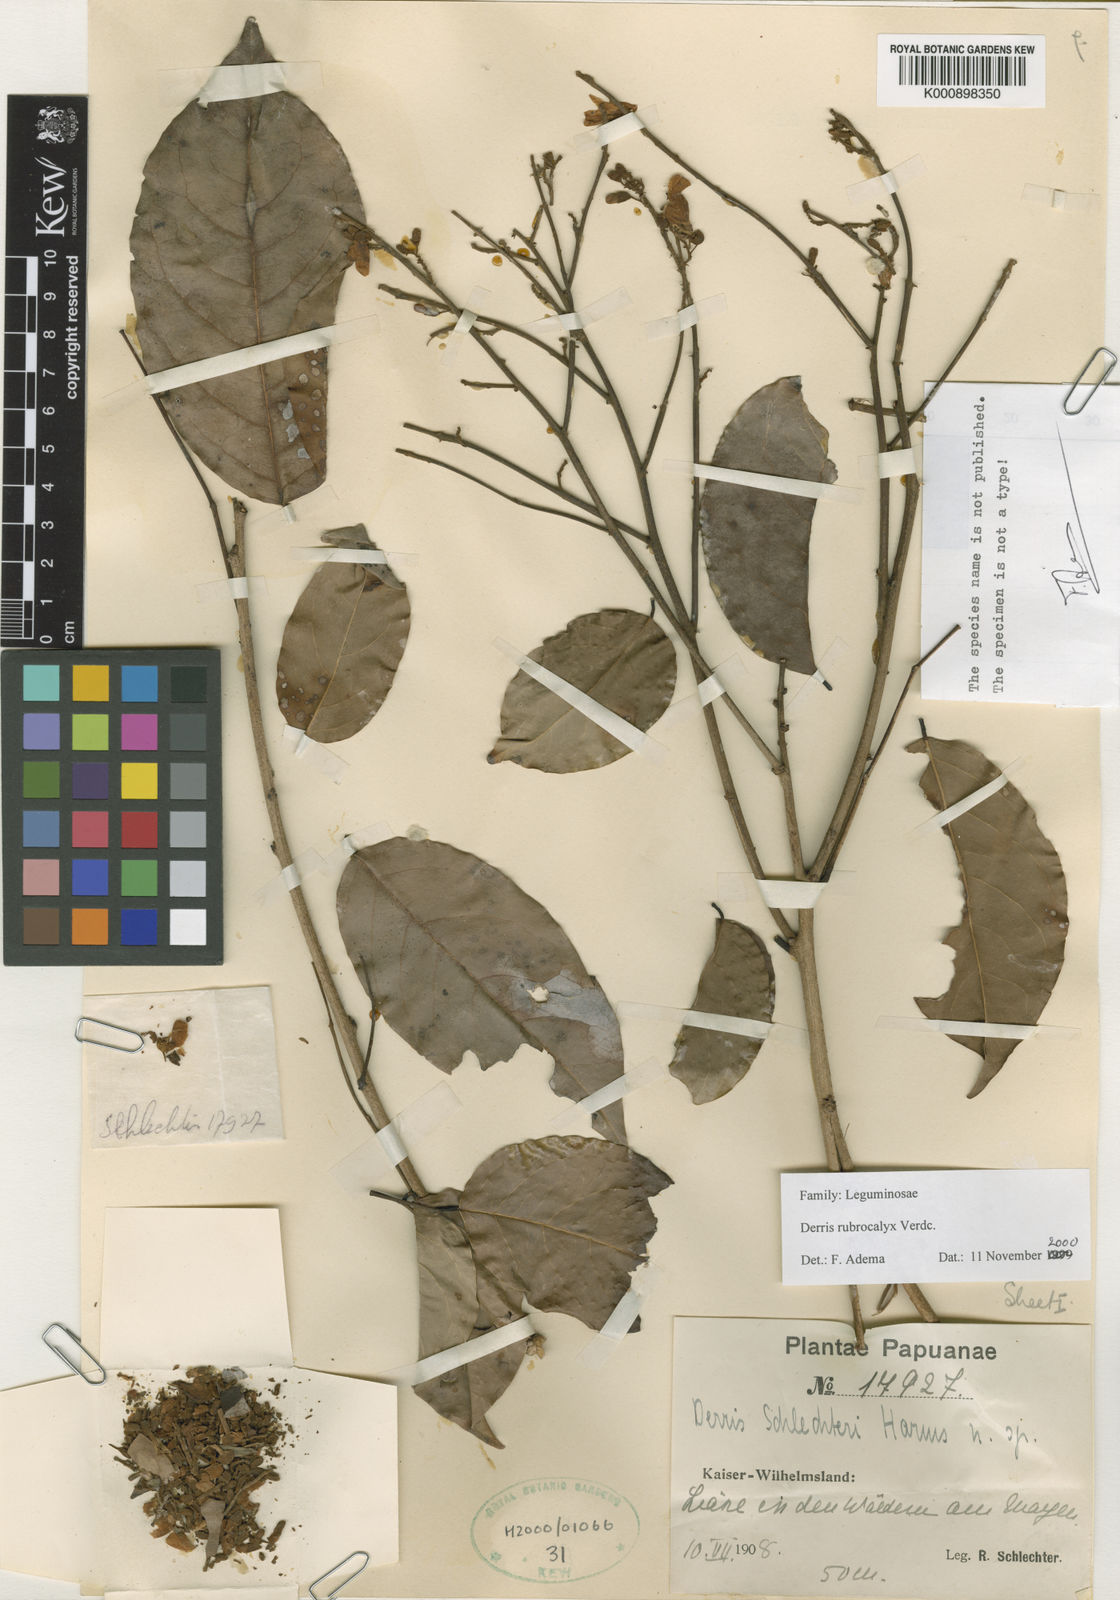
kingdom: Plantae
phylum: Tracheophyta
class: Magnoliopsida
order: Fabales
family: Fabaceae
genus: Derris
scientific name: Derris rubrocalyx
